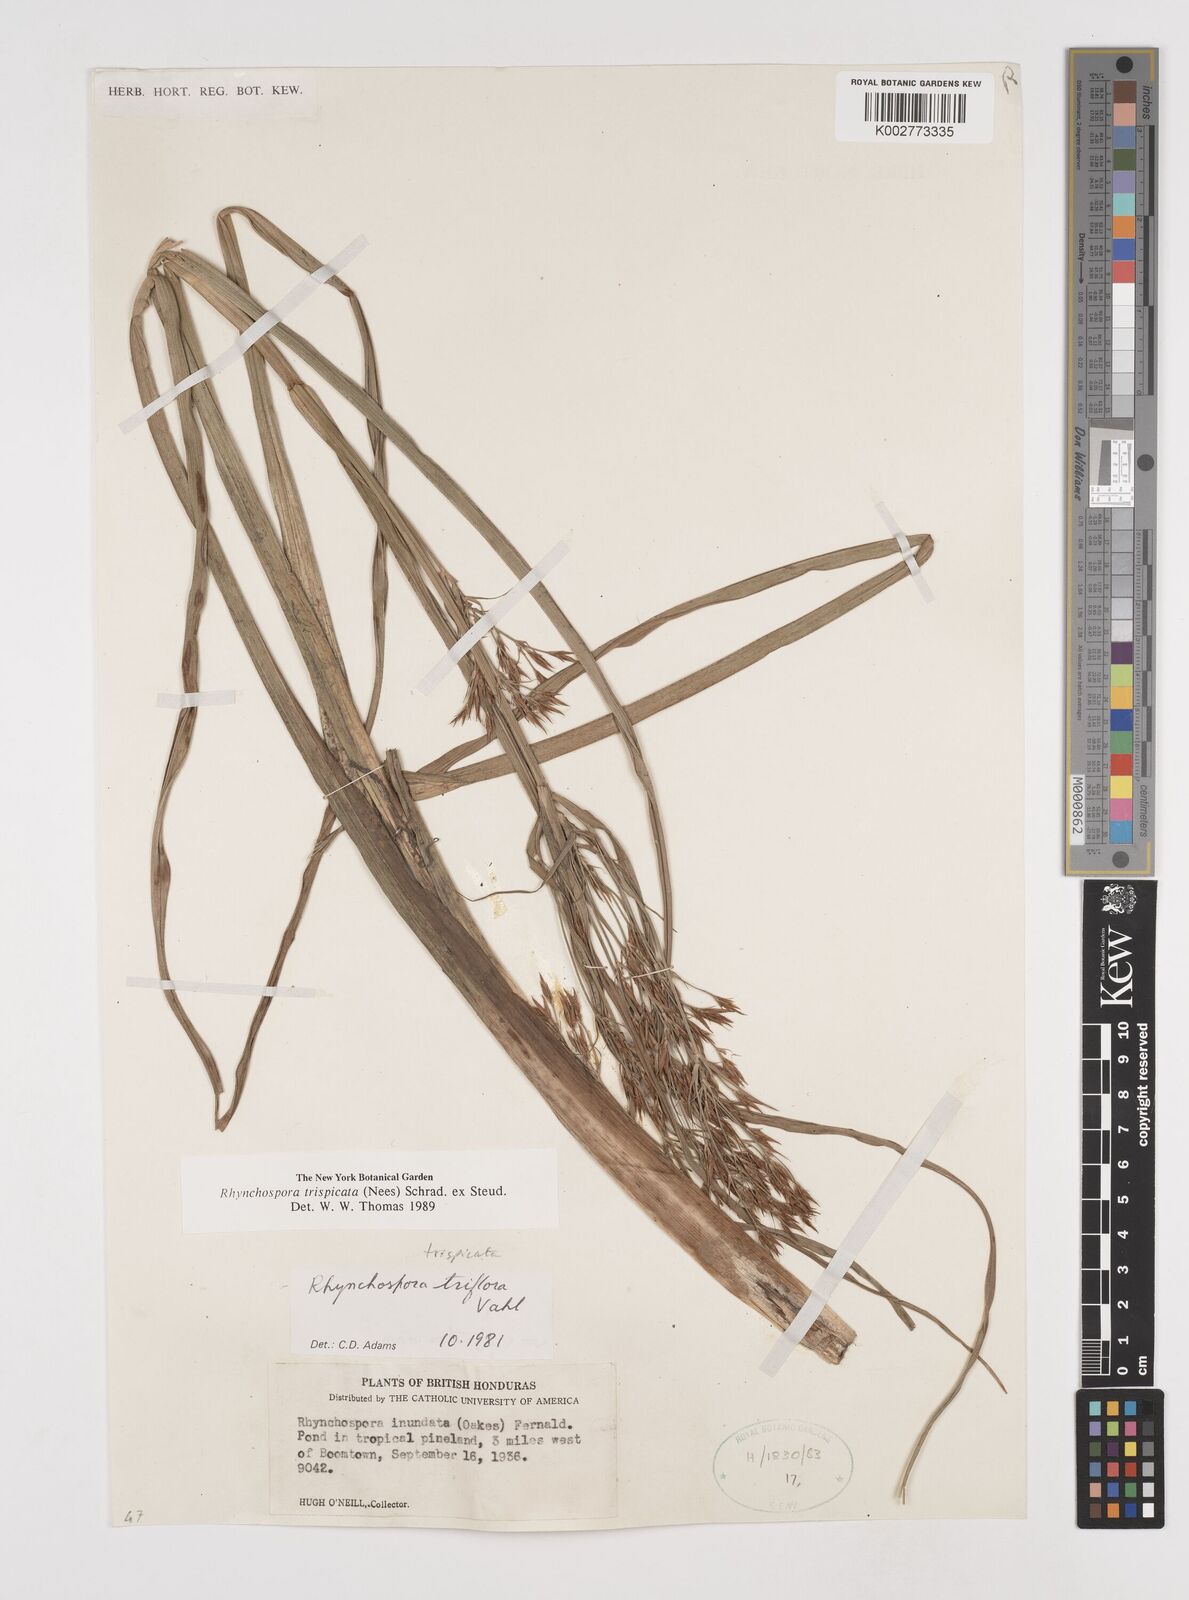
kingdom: Plantae
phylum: Tracheophyta
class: Liliopsida
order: Poales
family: Cyperaceae
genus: Rhynchospora
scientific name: Rhynchospora trispicata
